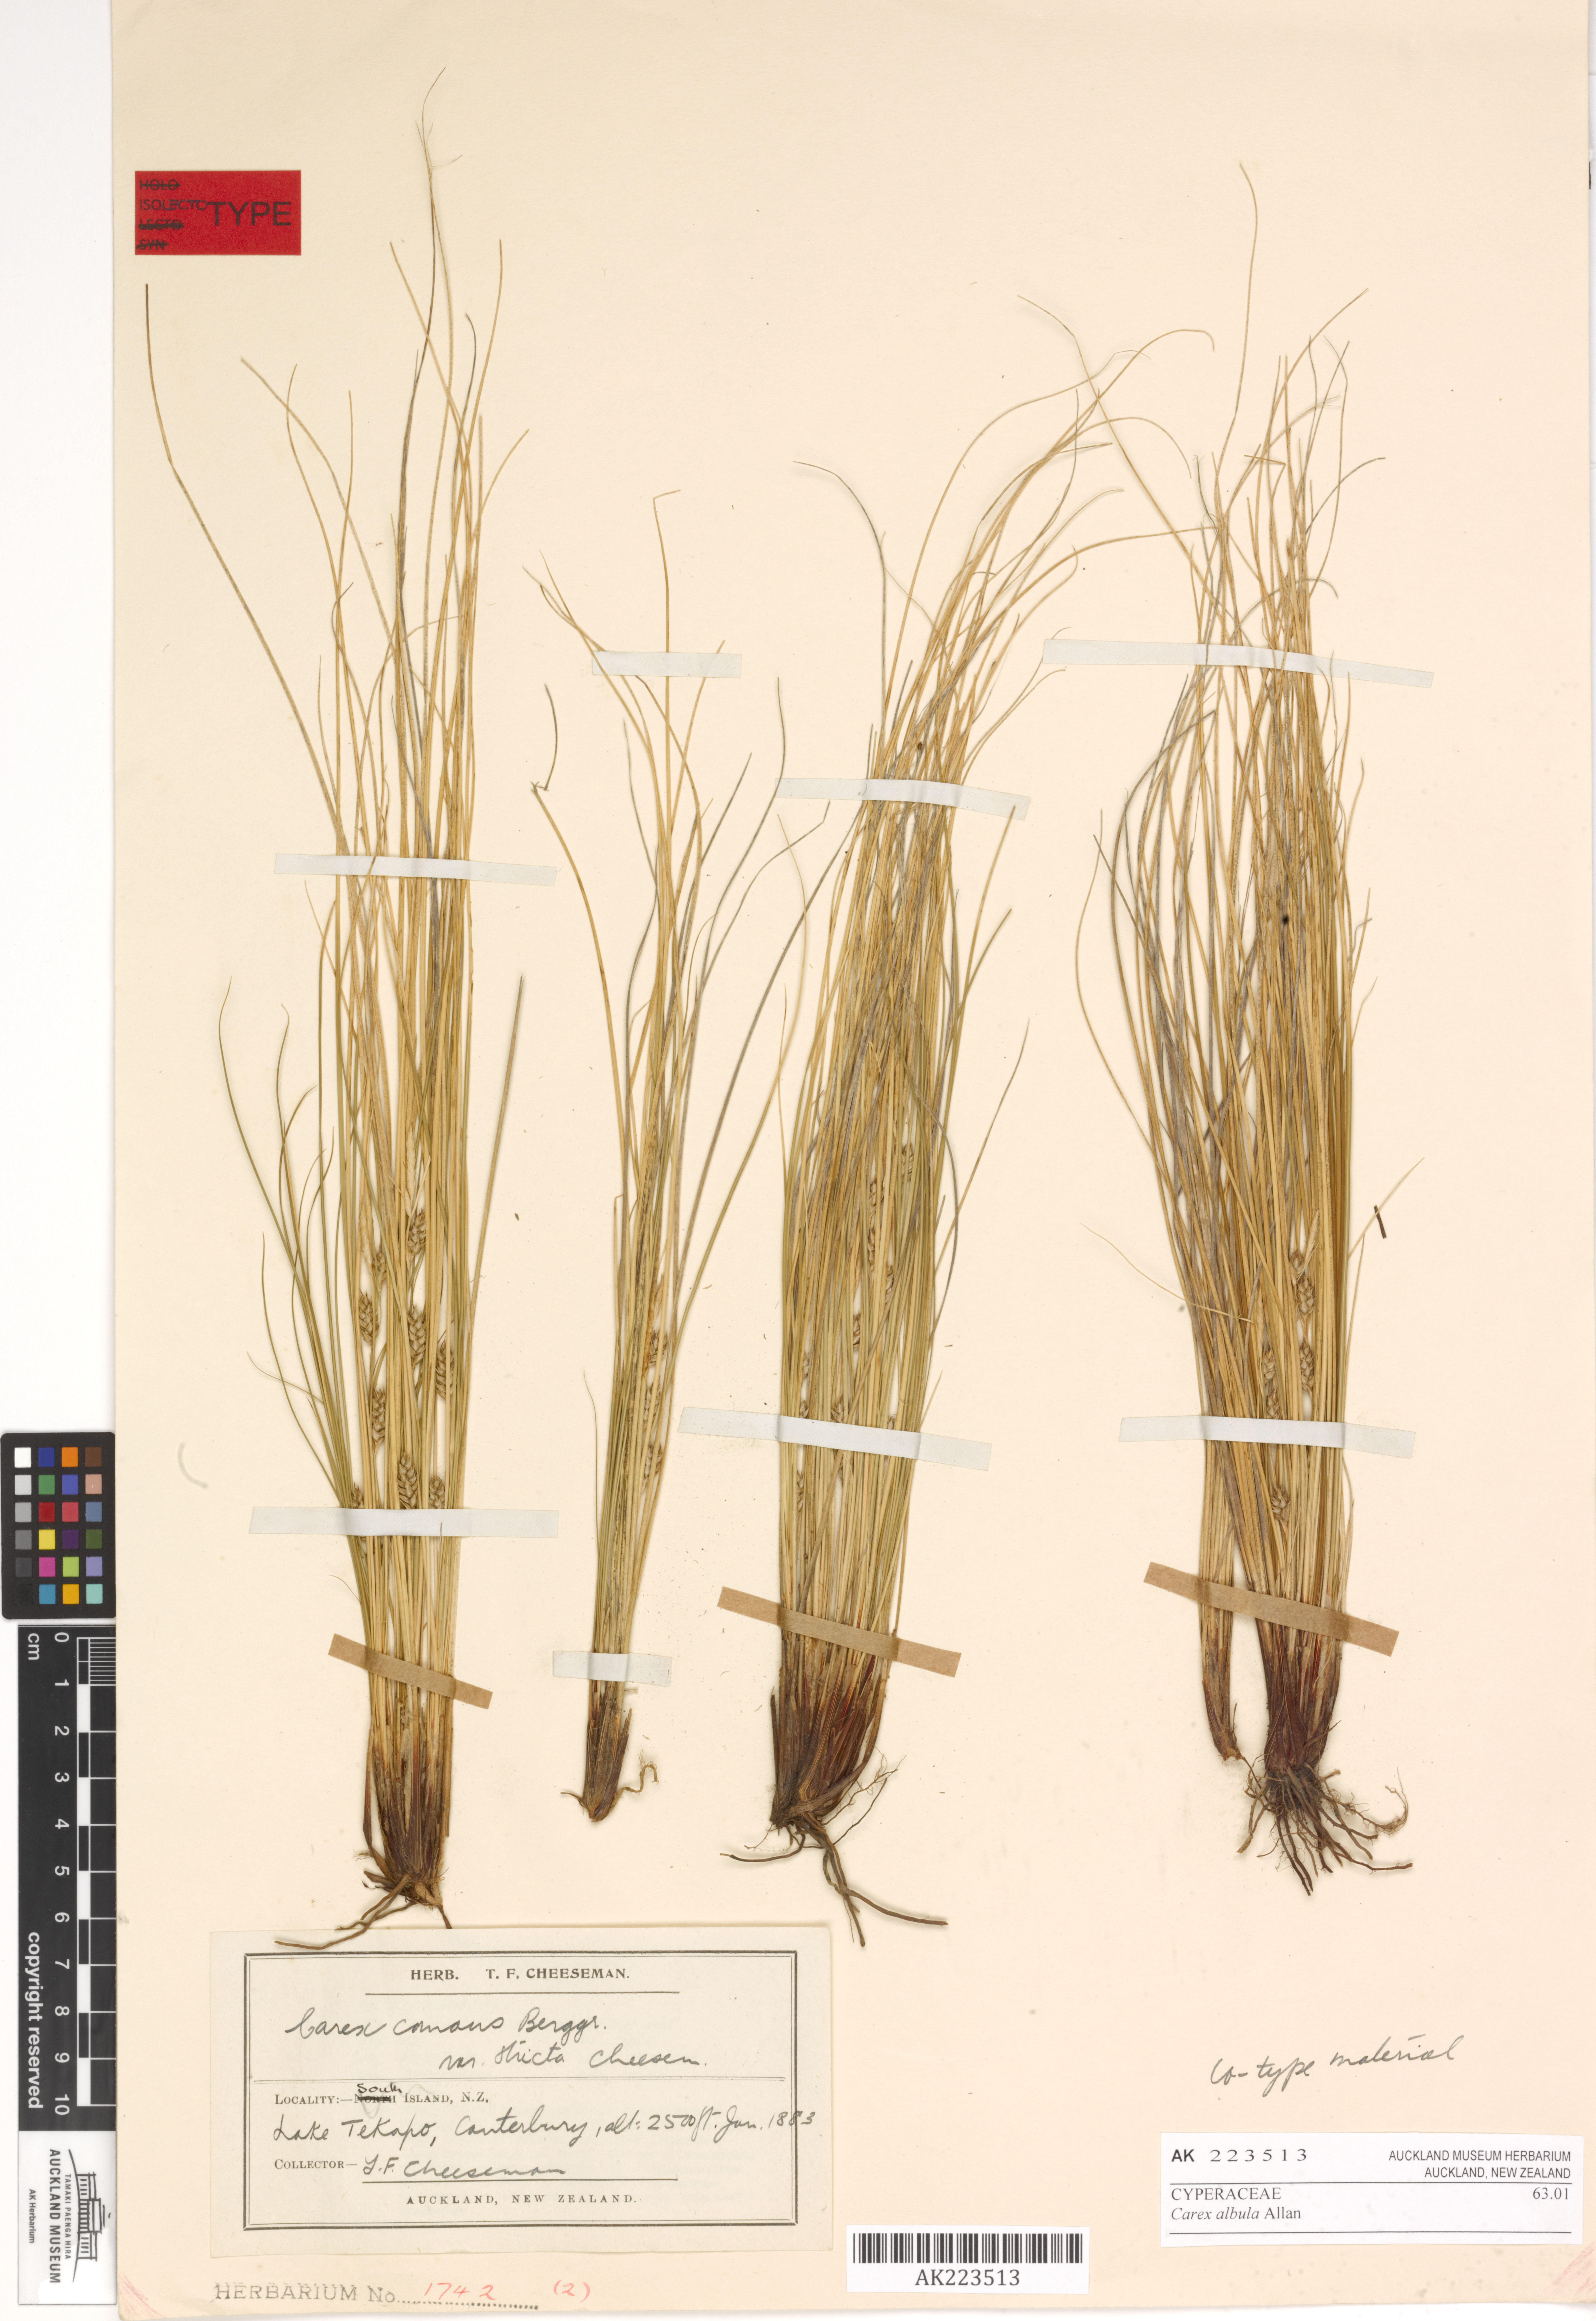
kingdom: Plantae
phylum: Tracheophyta
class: Liliopsida
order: Poales
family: Cyperaceae
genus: Carex
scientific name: Carex albula
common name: Blonde sedge
